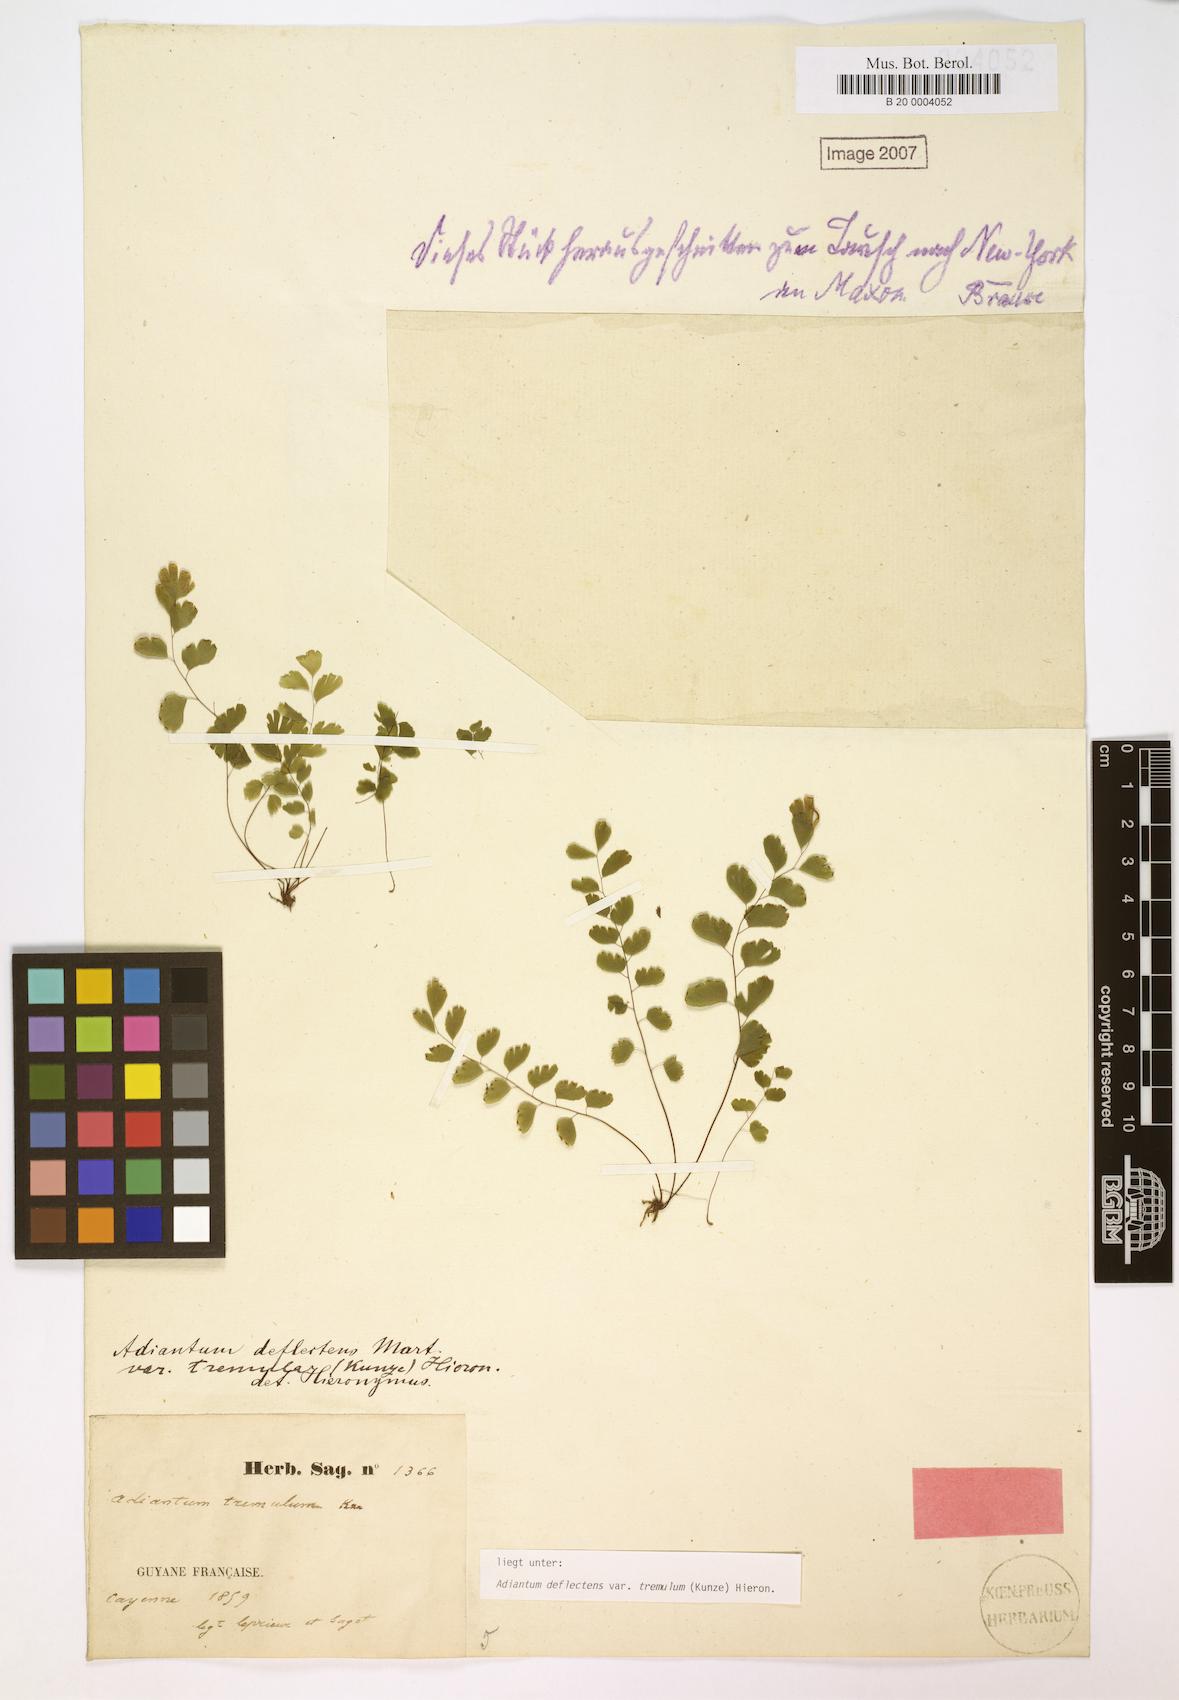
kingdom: Plantae
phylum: Tracheophyta
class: Polypodiopsida
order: Polypodiales
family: Pteridaceae
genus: Adiantum
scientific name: Adiantum deflectens
